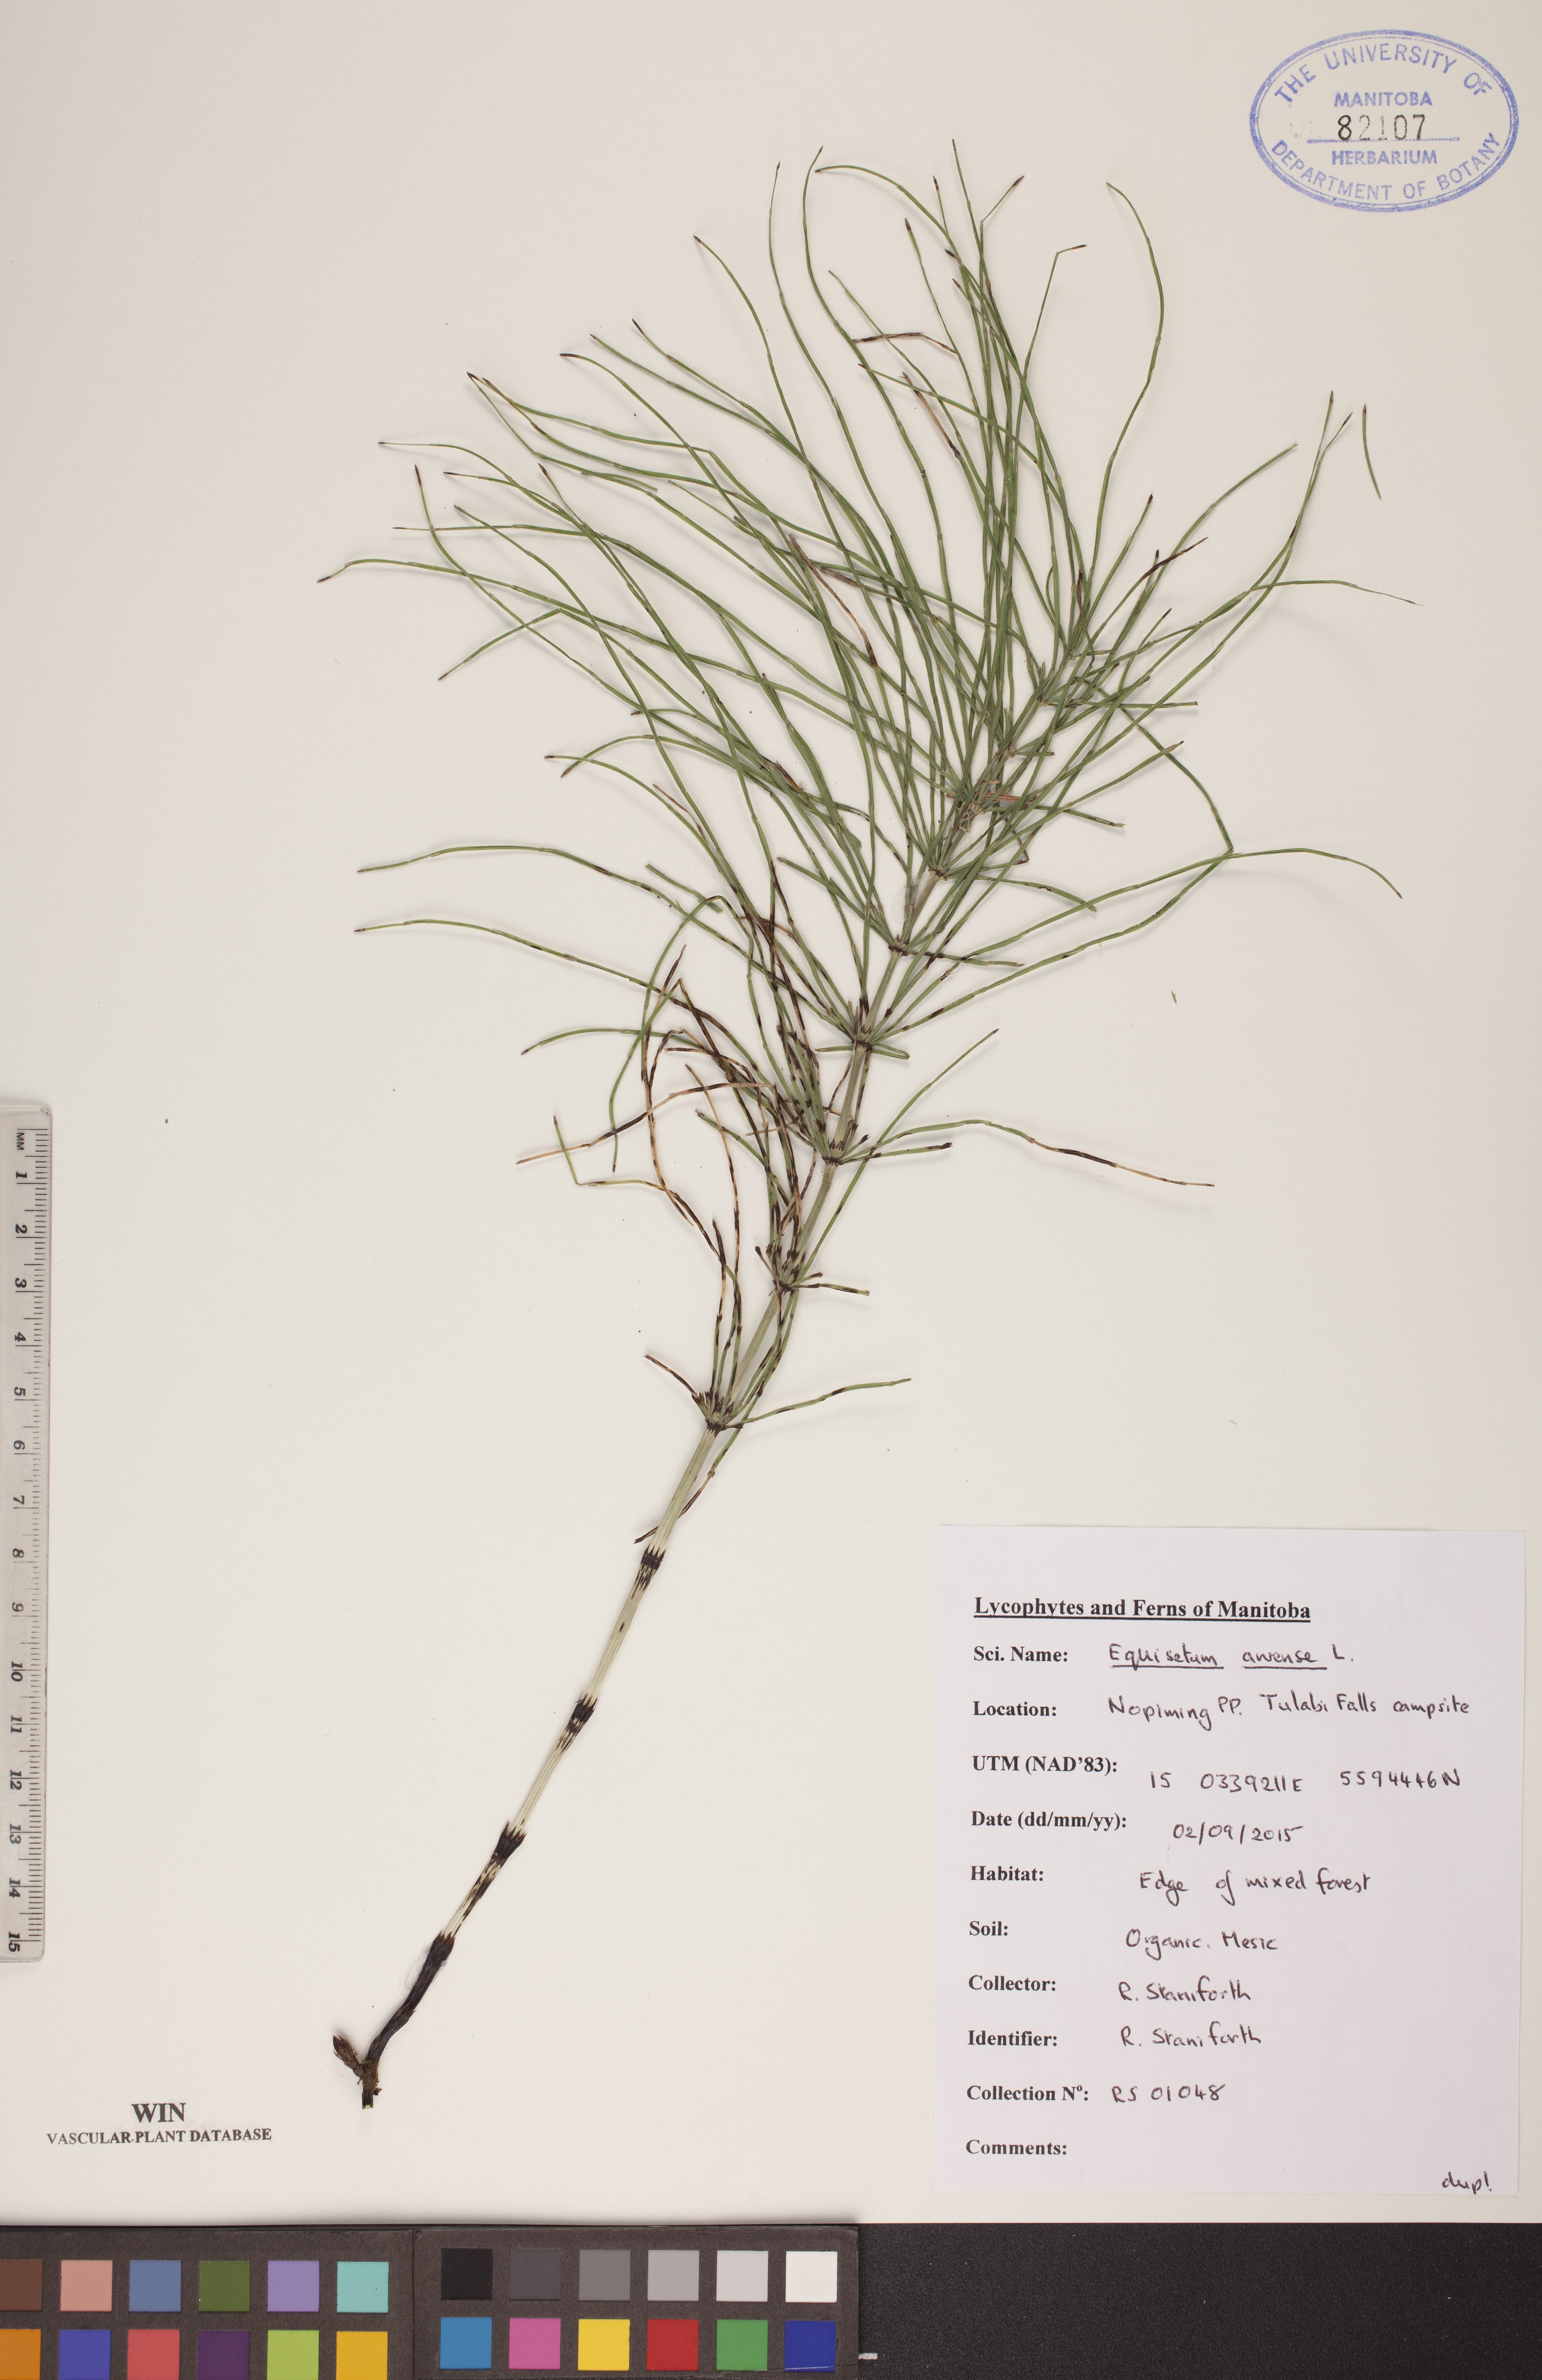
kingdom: Plantae
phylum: Tracheophyta
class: Polypodiopsida
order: Equisetales
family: Equisetaceae
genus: Equisetum
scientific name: Equisetum arvense
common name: Field horsetail
